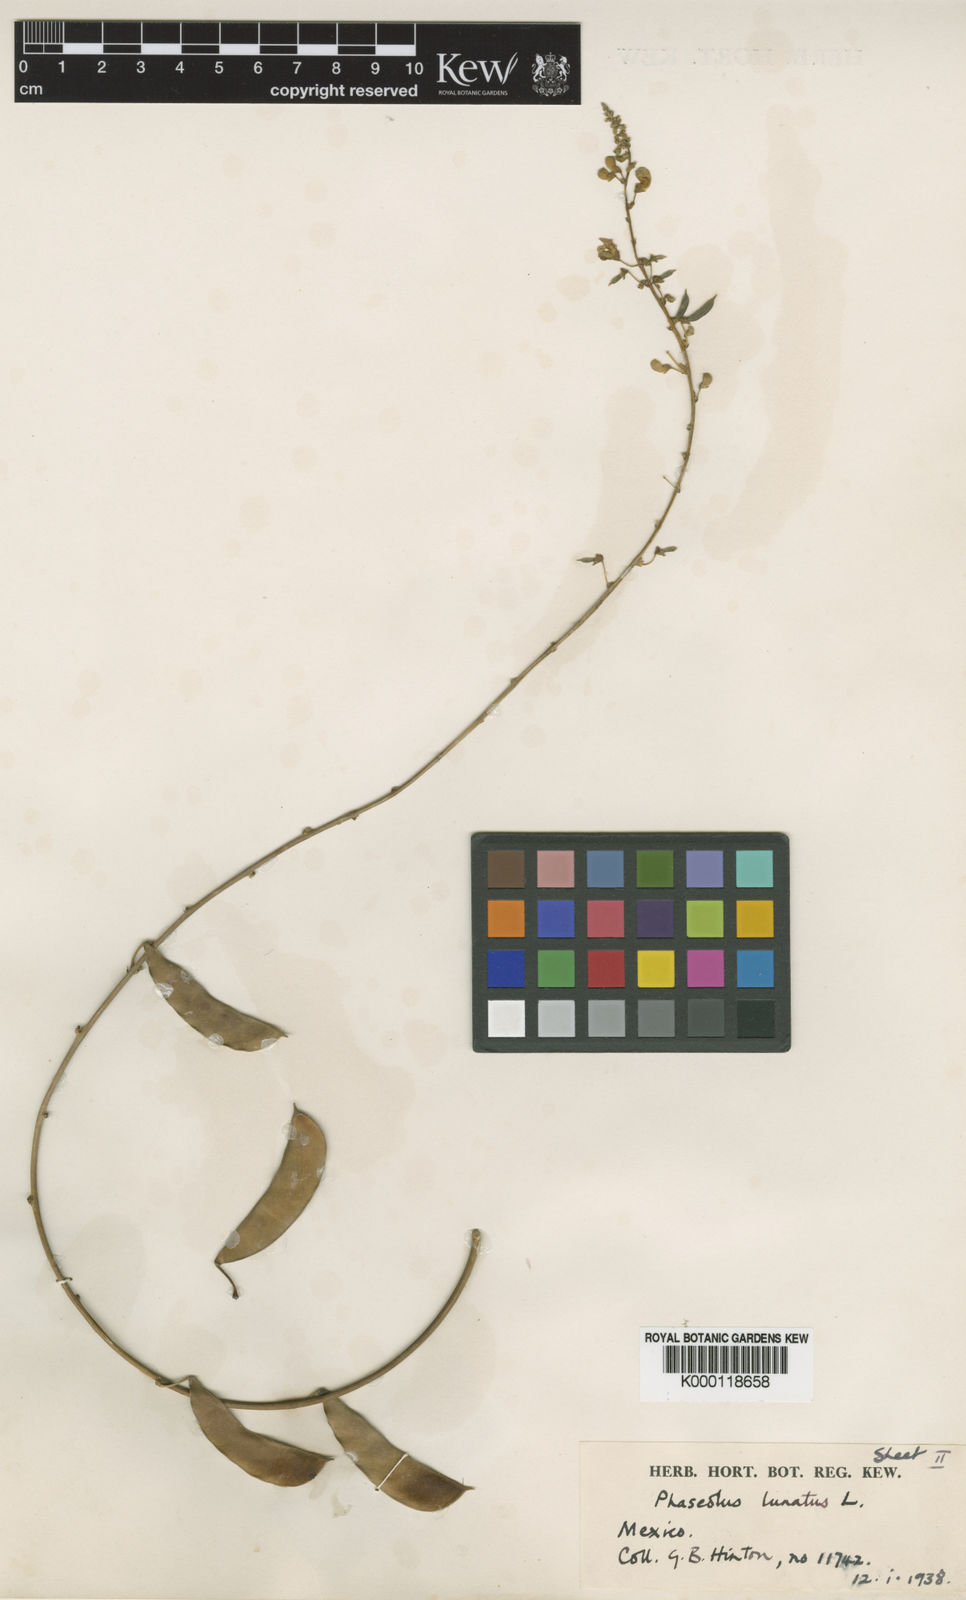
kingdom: Plantae
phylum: Tracheophyta
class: Magnoliopsida
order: Fabales
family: Fabaceae
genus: Phaseolus
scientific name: Phaseolus lunatus
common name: Sieva bean
